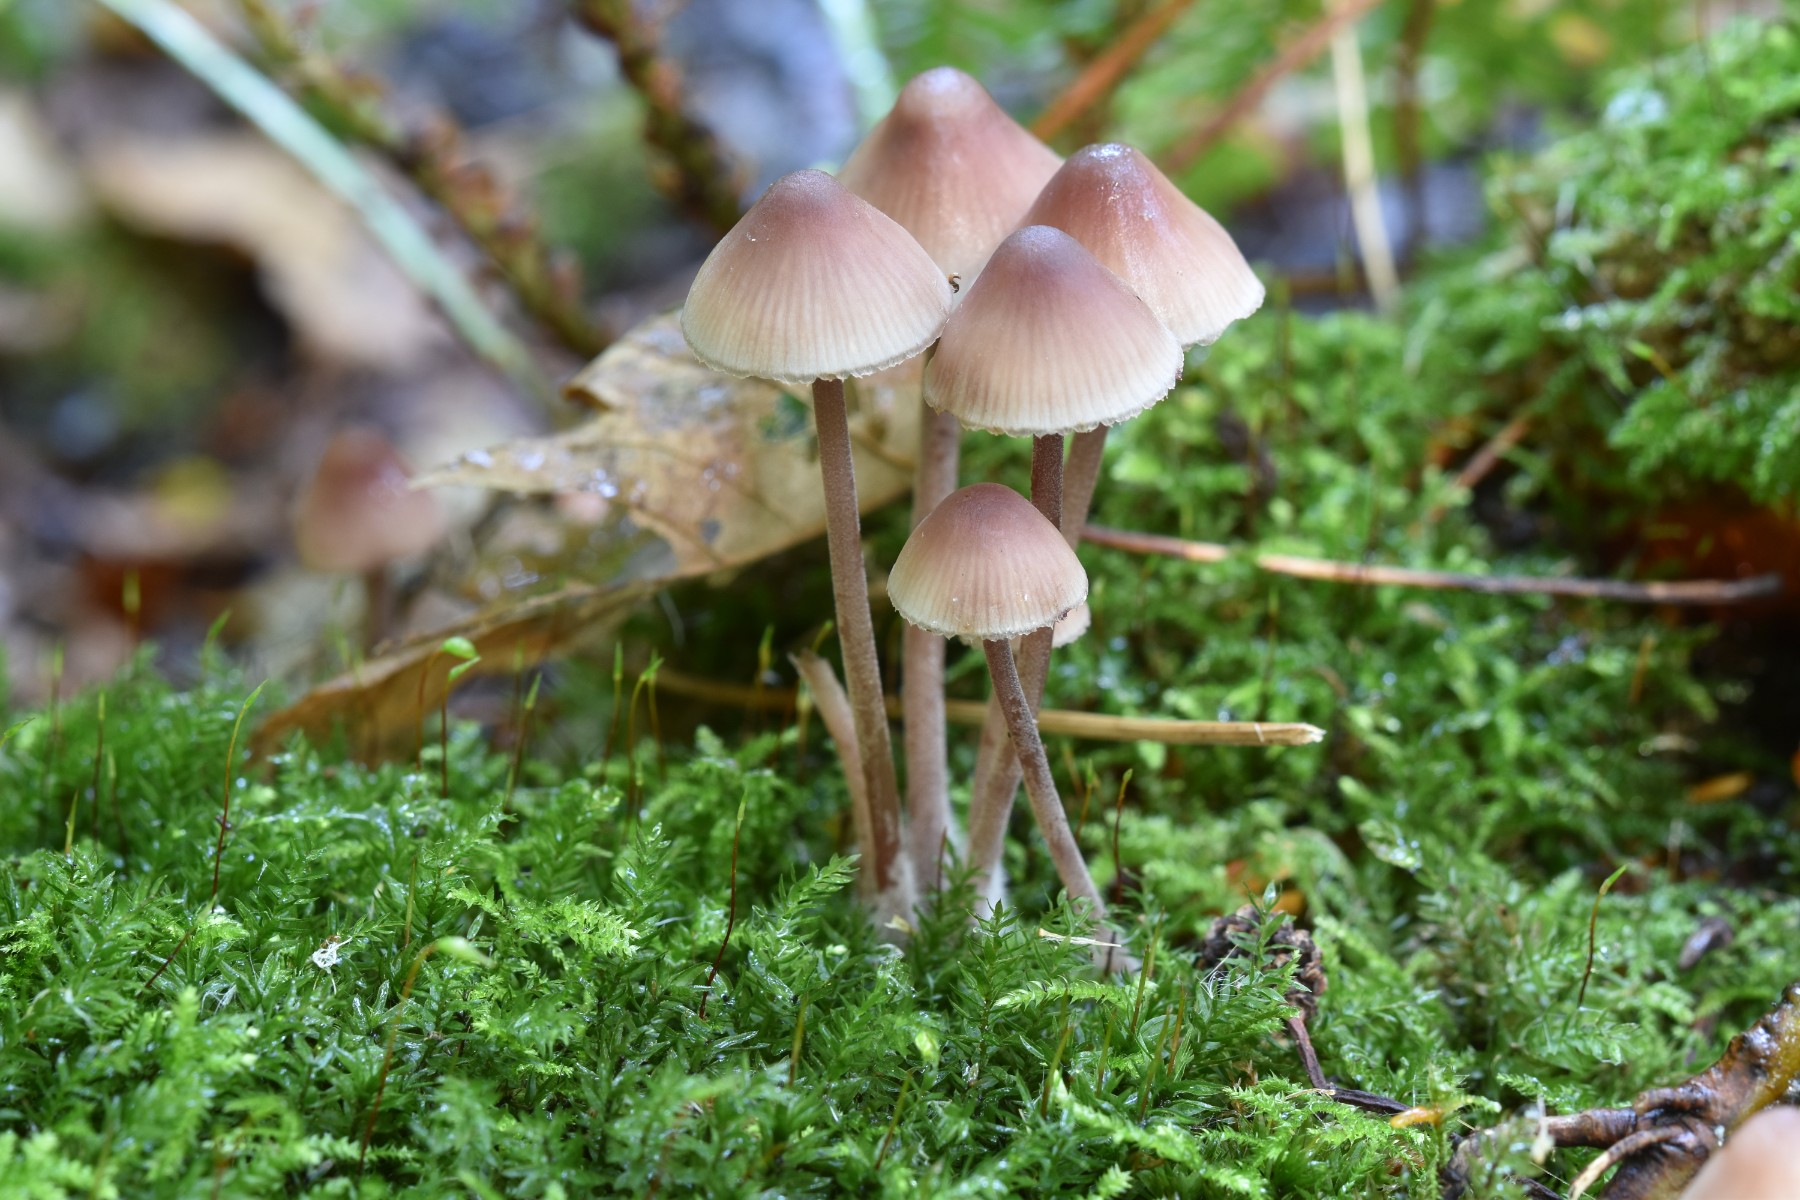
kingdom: Fungi
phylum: Basidiomycota
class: Agaricomycetes
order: Agaricales
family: Mycenaceae
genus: Mycena
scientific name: Mycena haematopus
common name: blødende huesvamp
